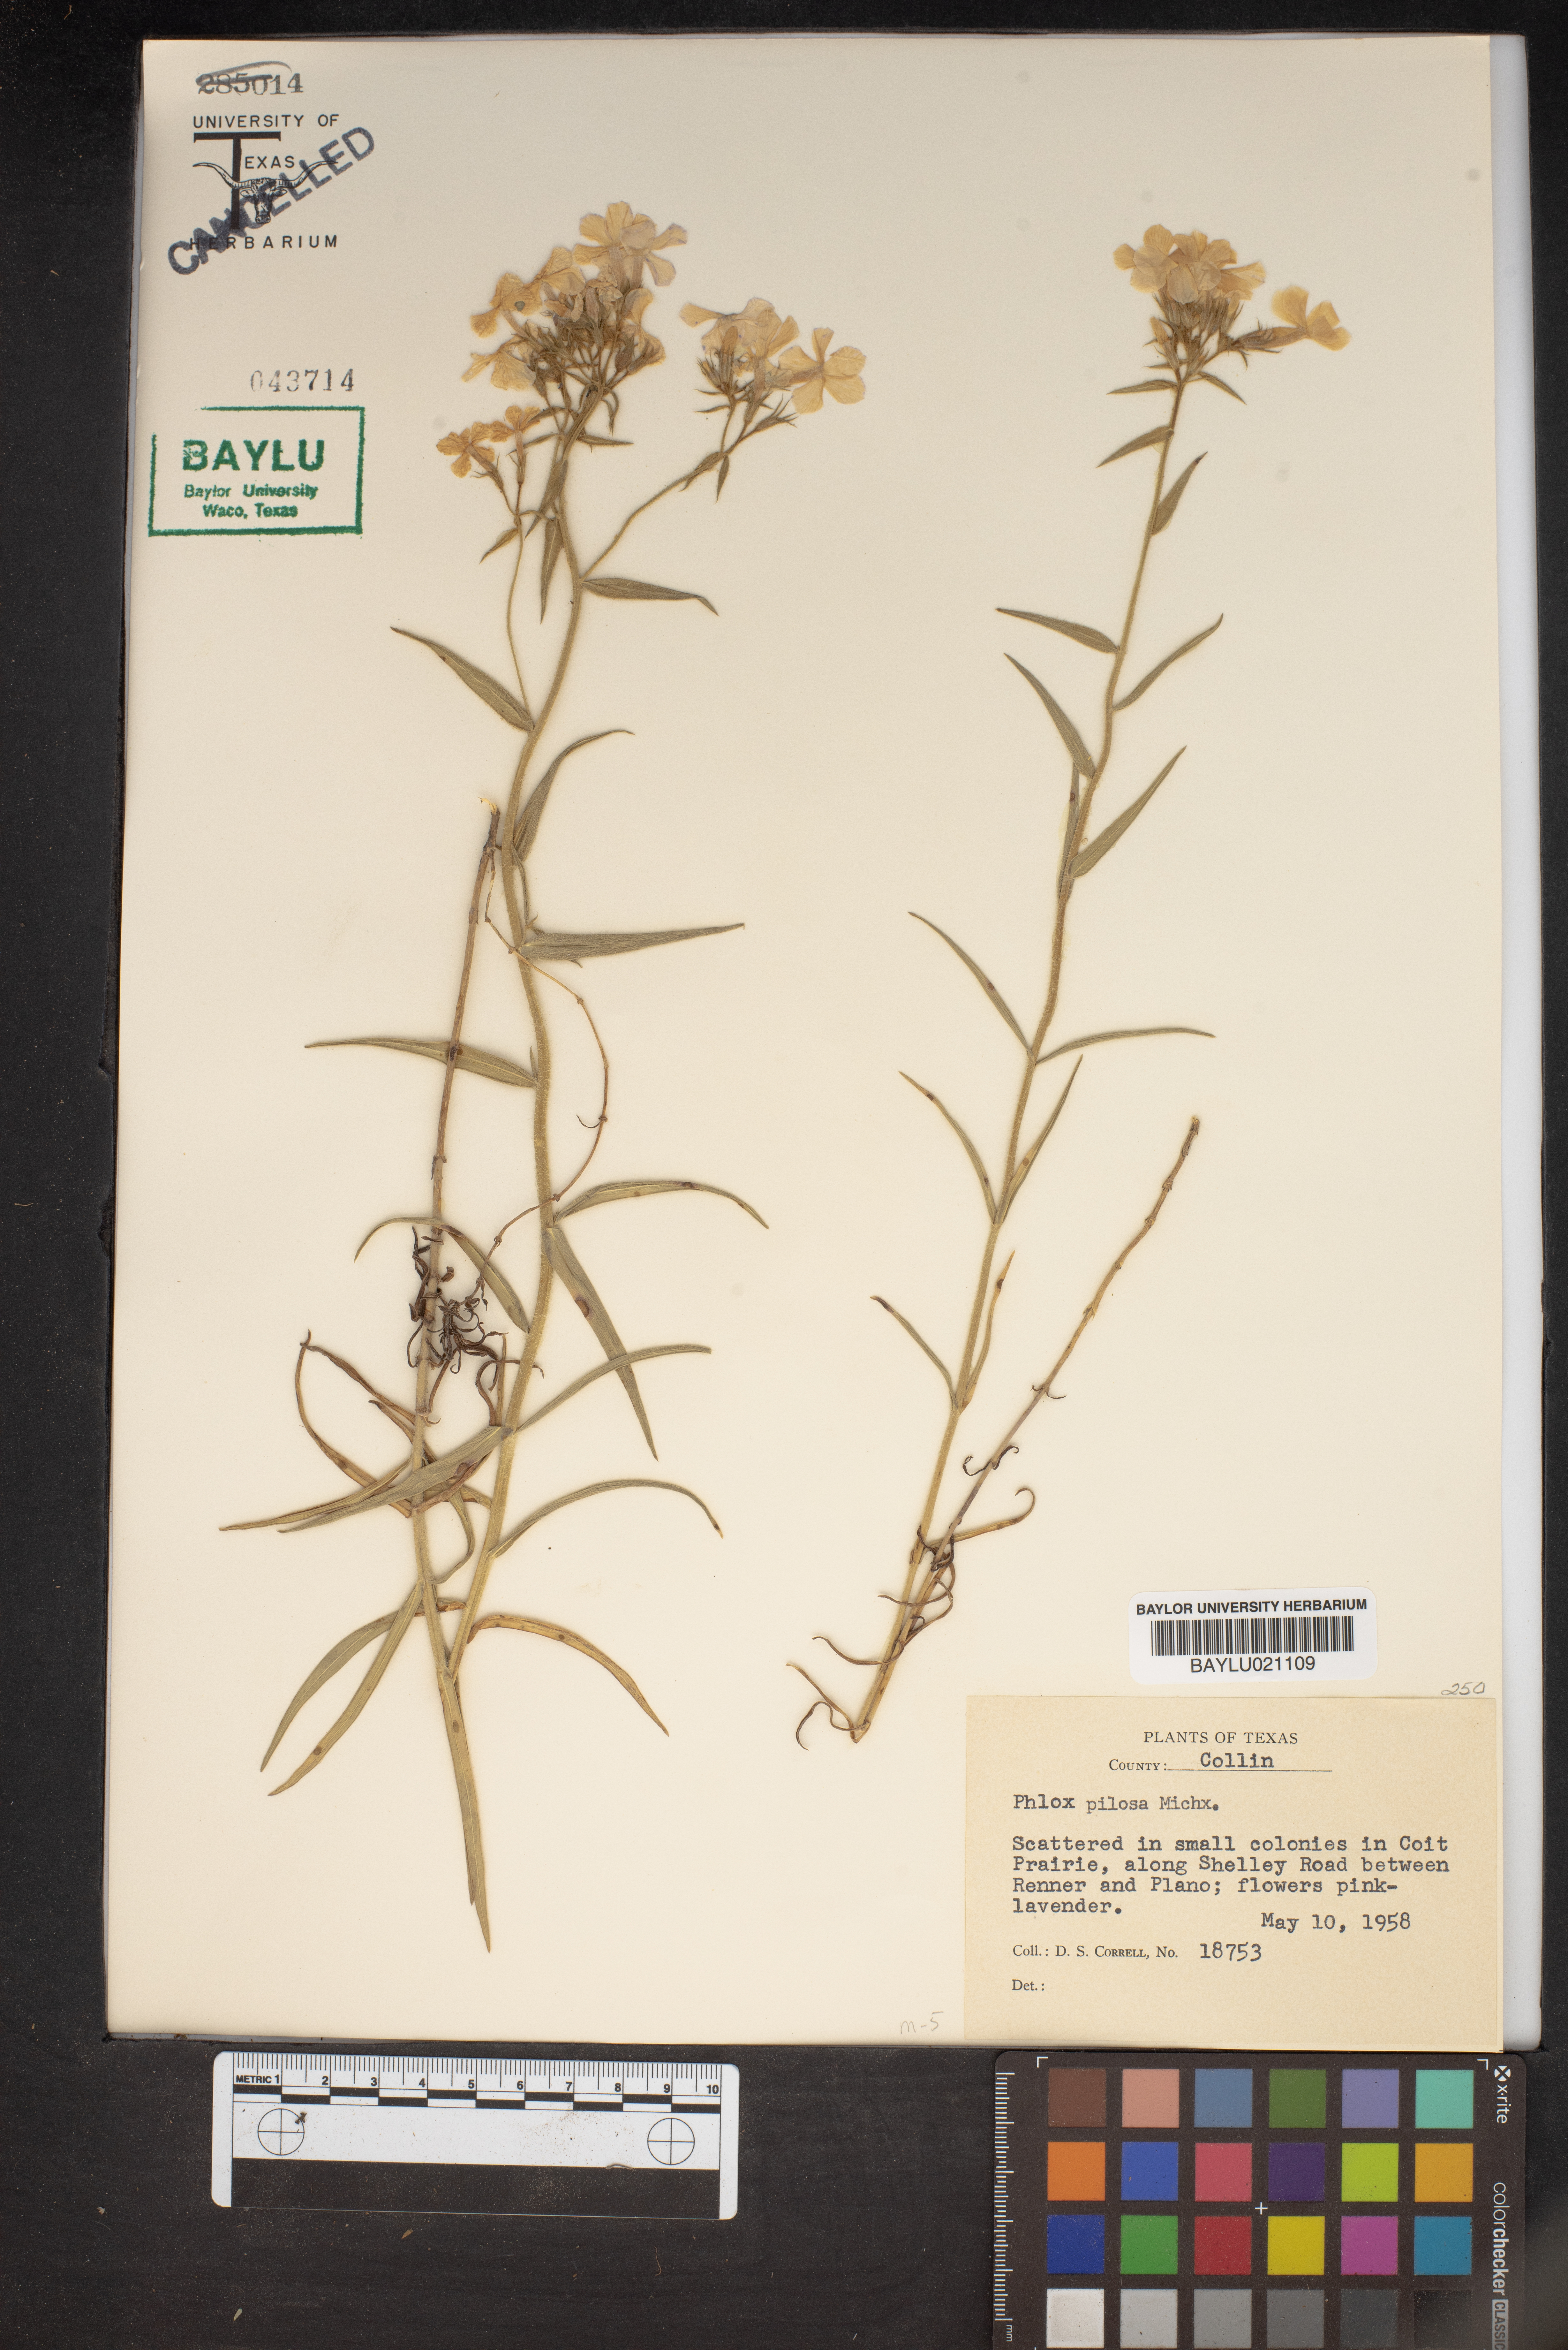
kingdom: Plantae
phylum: Tracheophyta
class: Magnoliopsida
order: Ericales
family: Polemoniaceae
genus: Phlox
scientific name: Phlox pilosa
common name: Prairie phlox
